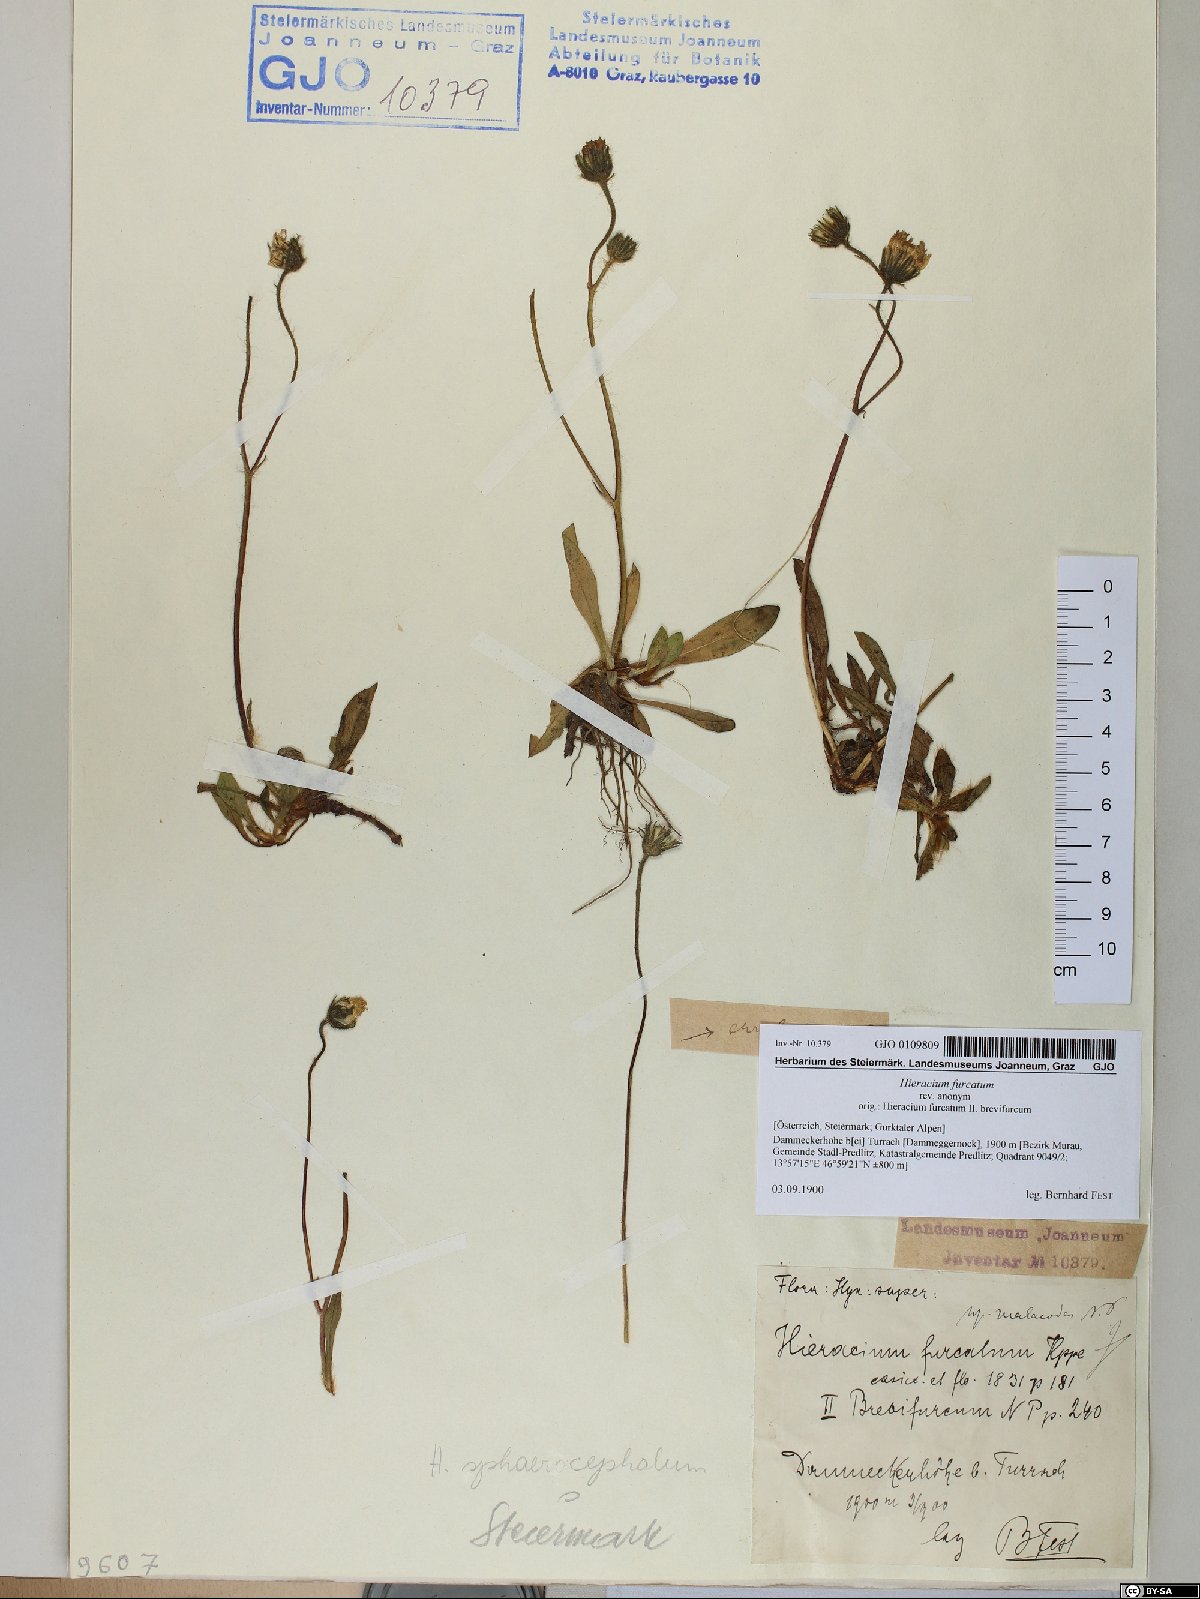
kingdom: Plantae
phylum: Tracheophyta
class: Magnoliopsida
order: Asterales
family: Asteraceae
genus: Pilosella
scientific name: Pilosella sphaerocephala
